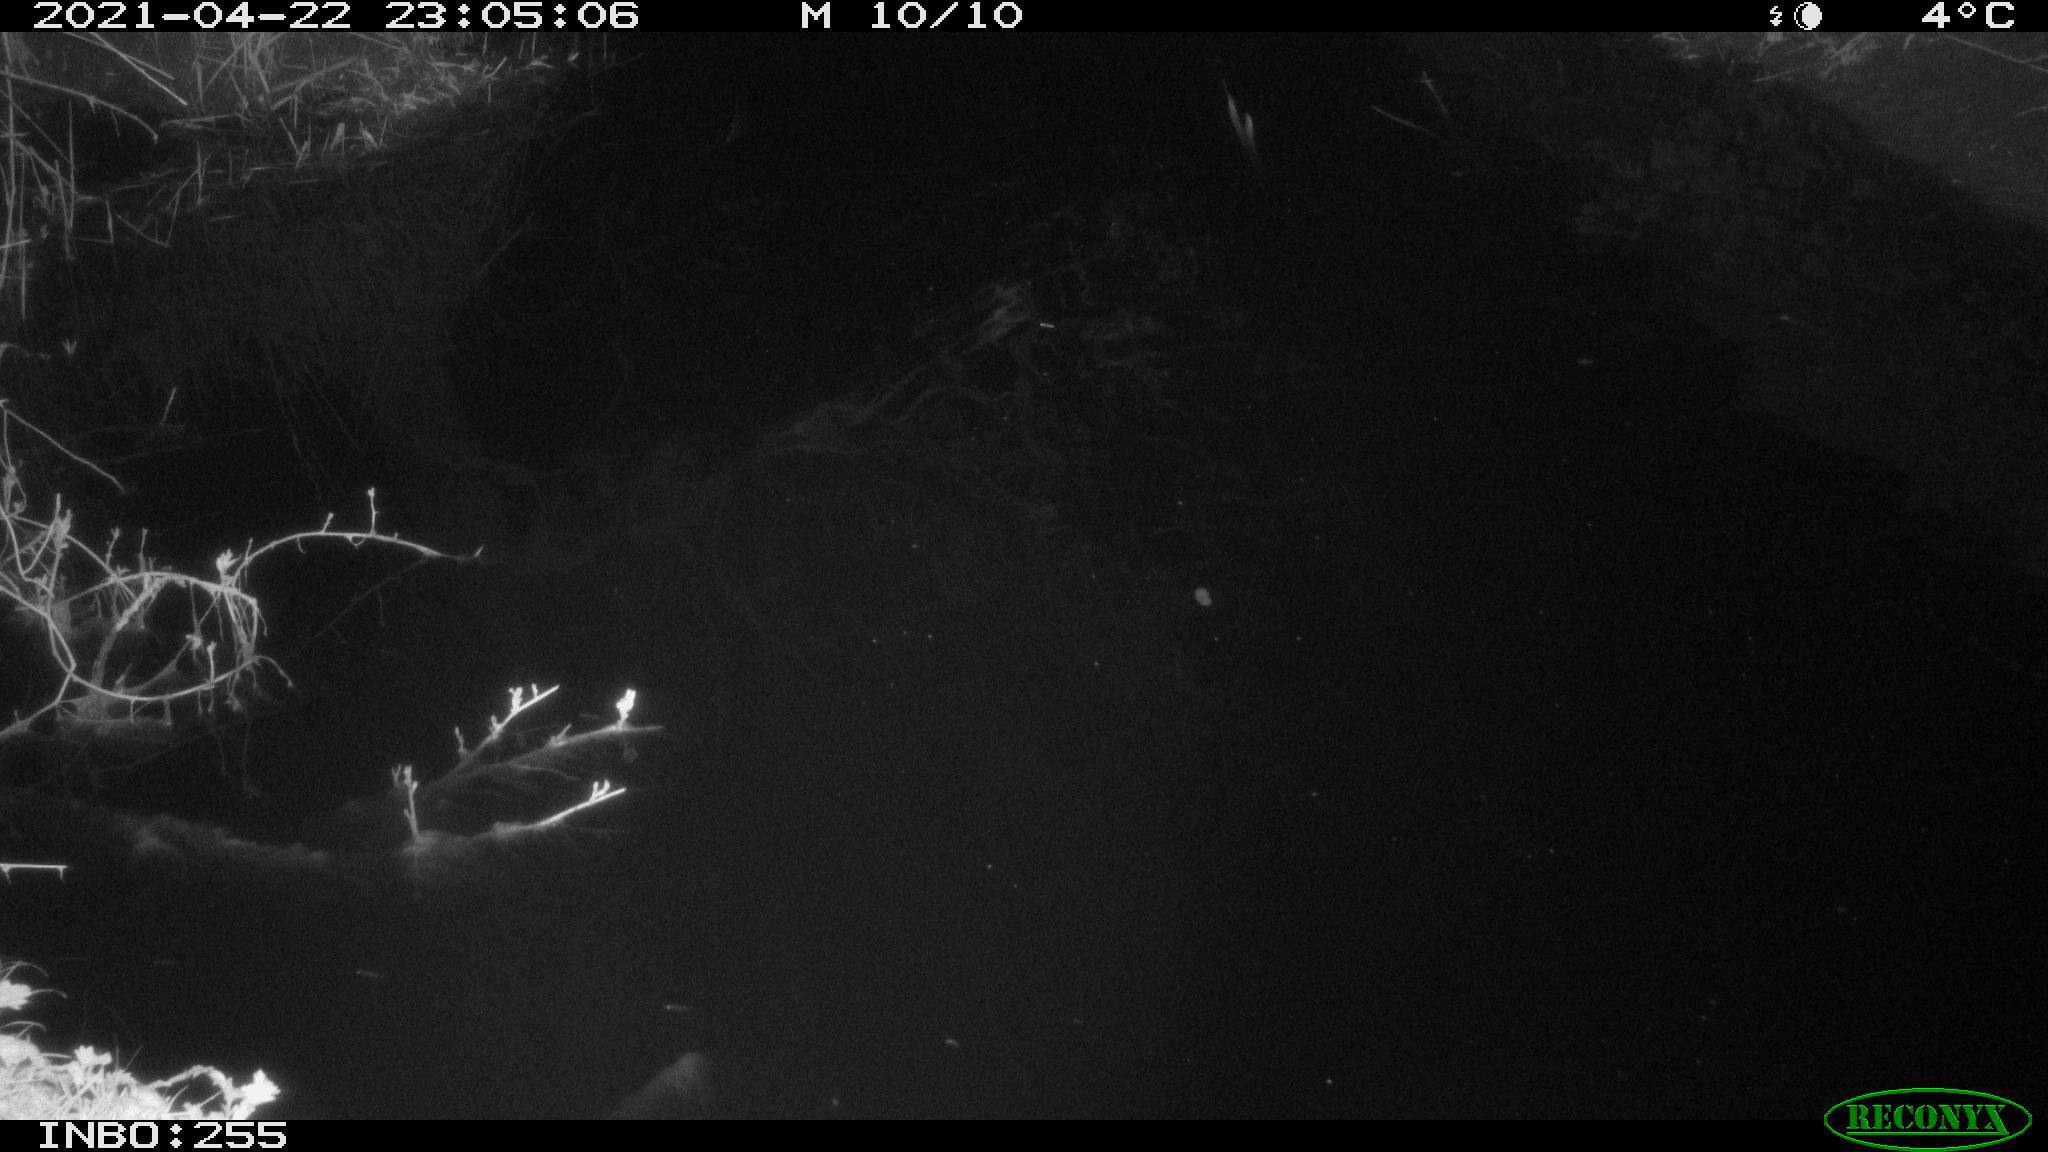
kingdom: Animalia
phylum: Chordata
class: Aves
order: Anseriformes
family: Anatidae
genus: Anas
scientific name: Anas platyrhynchos
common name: Mallard
